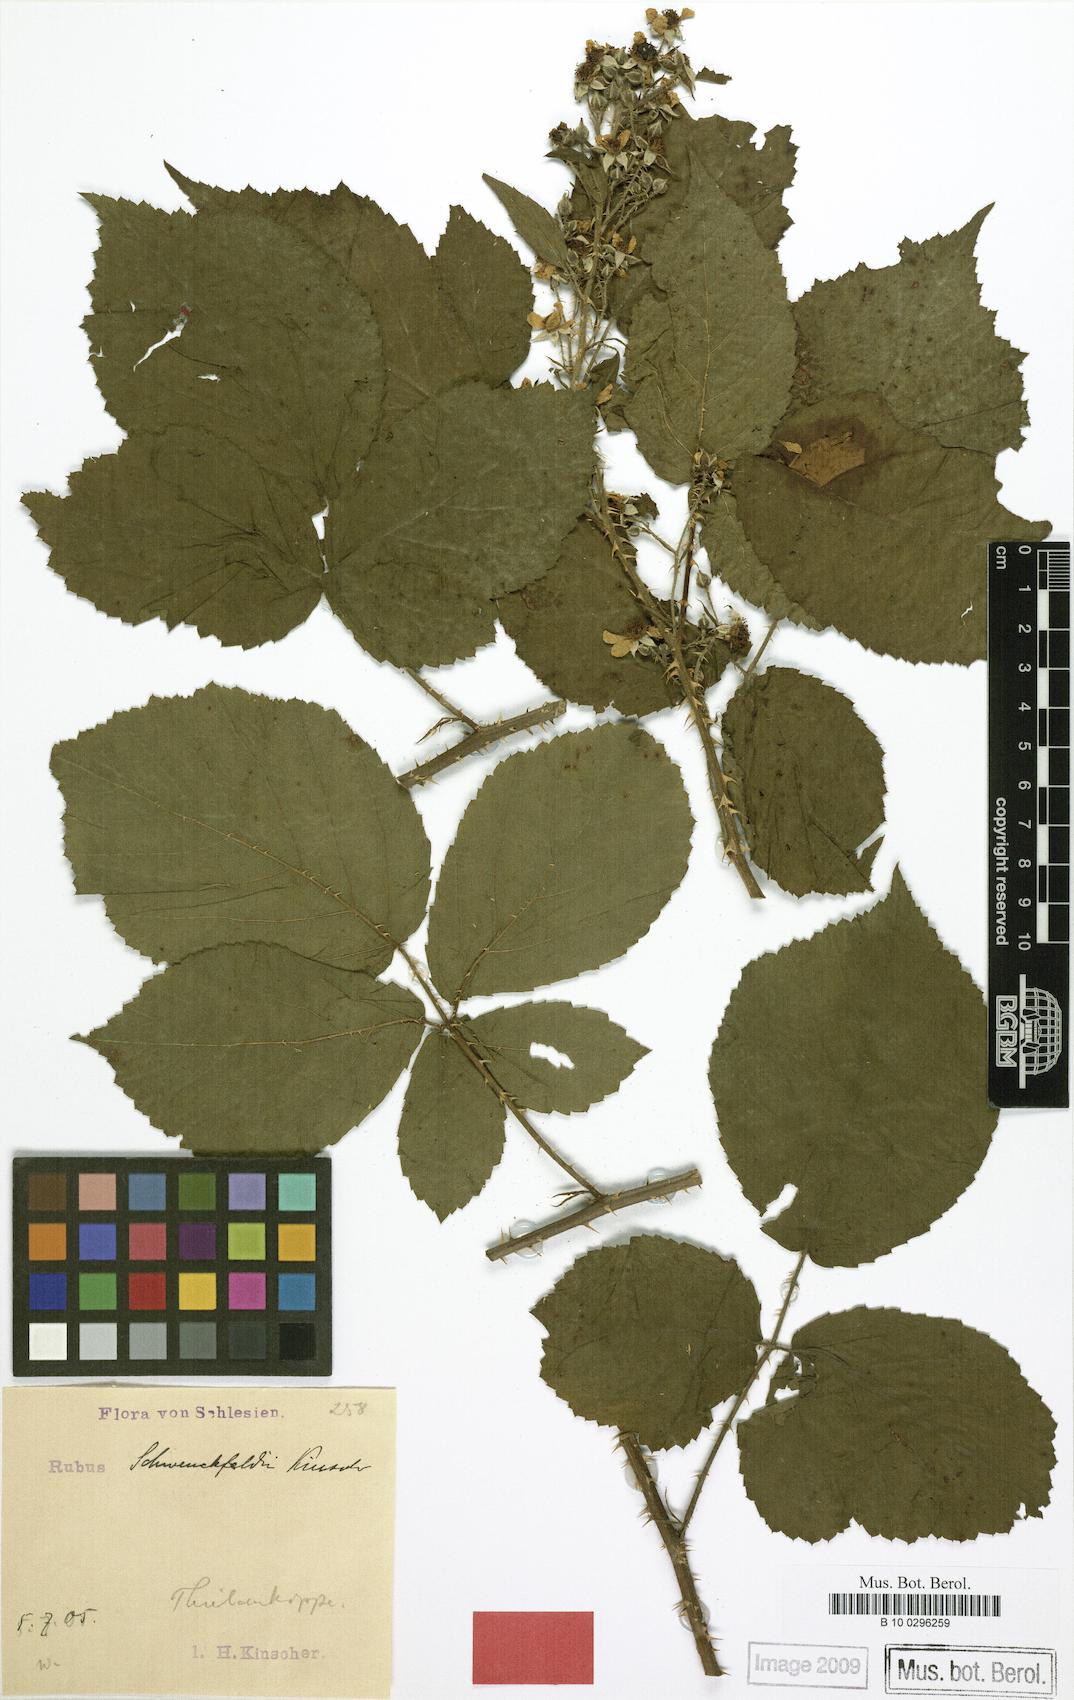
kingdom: Plantae
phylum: Tracheophyta
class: Magnoliopsida
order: Rosales
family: Rosaceae
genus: Rubus
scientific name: Rubus cimbricus
